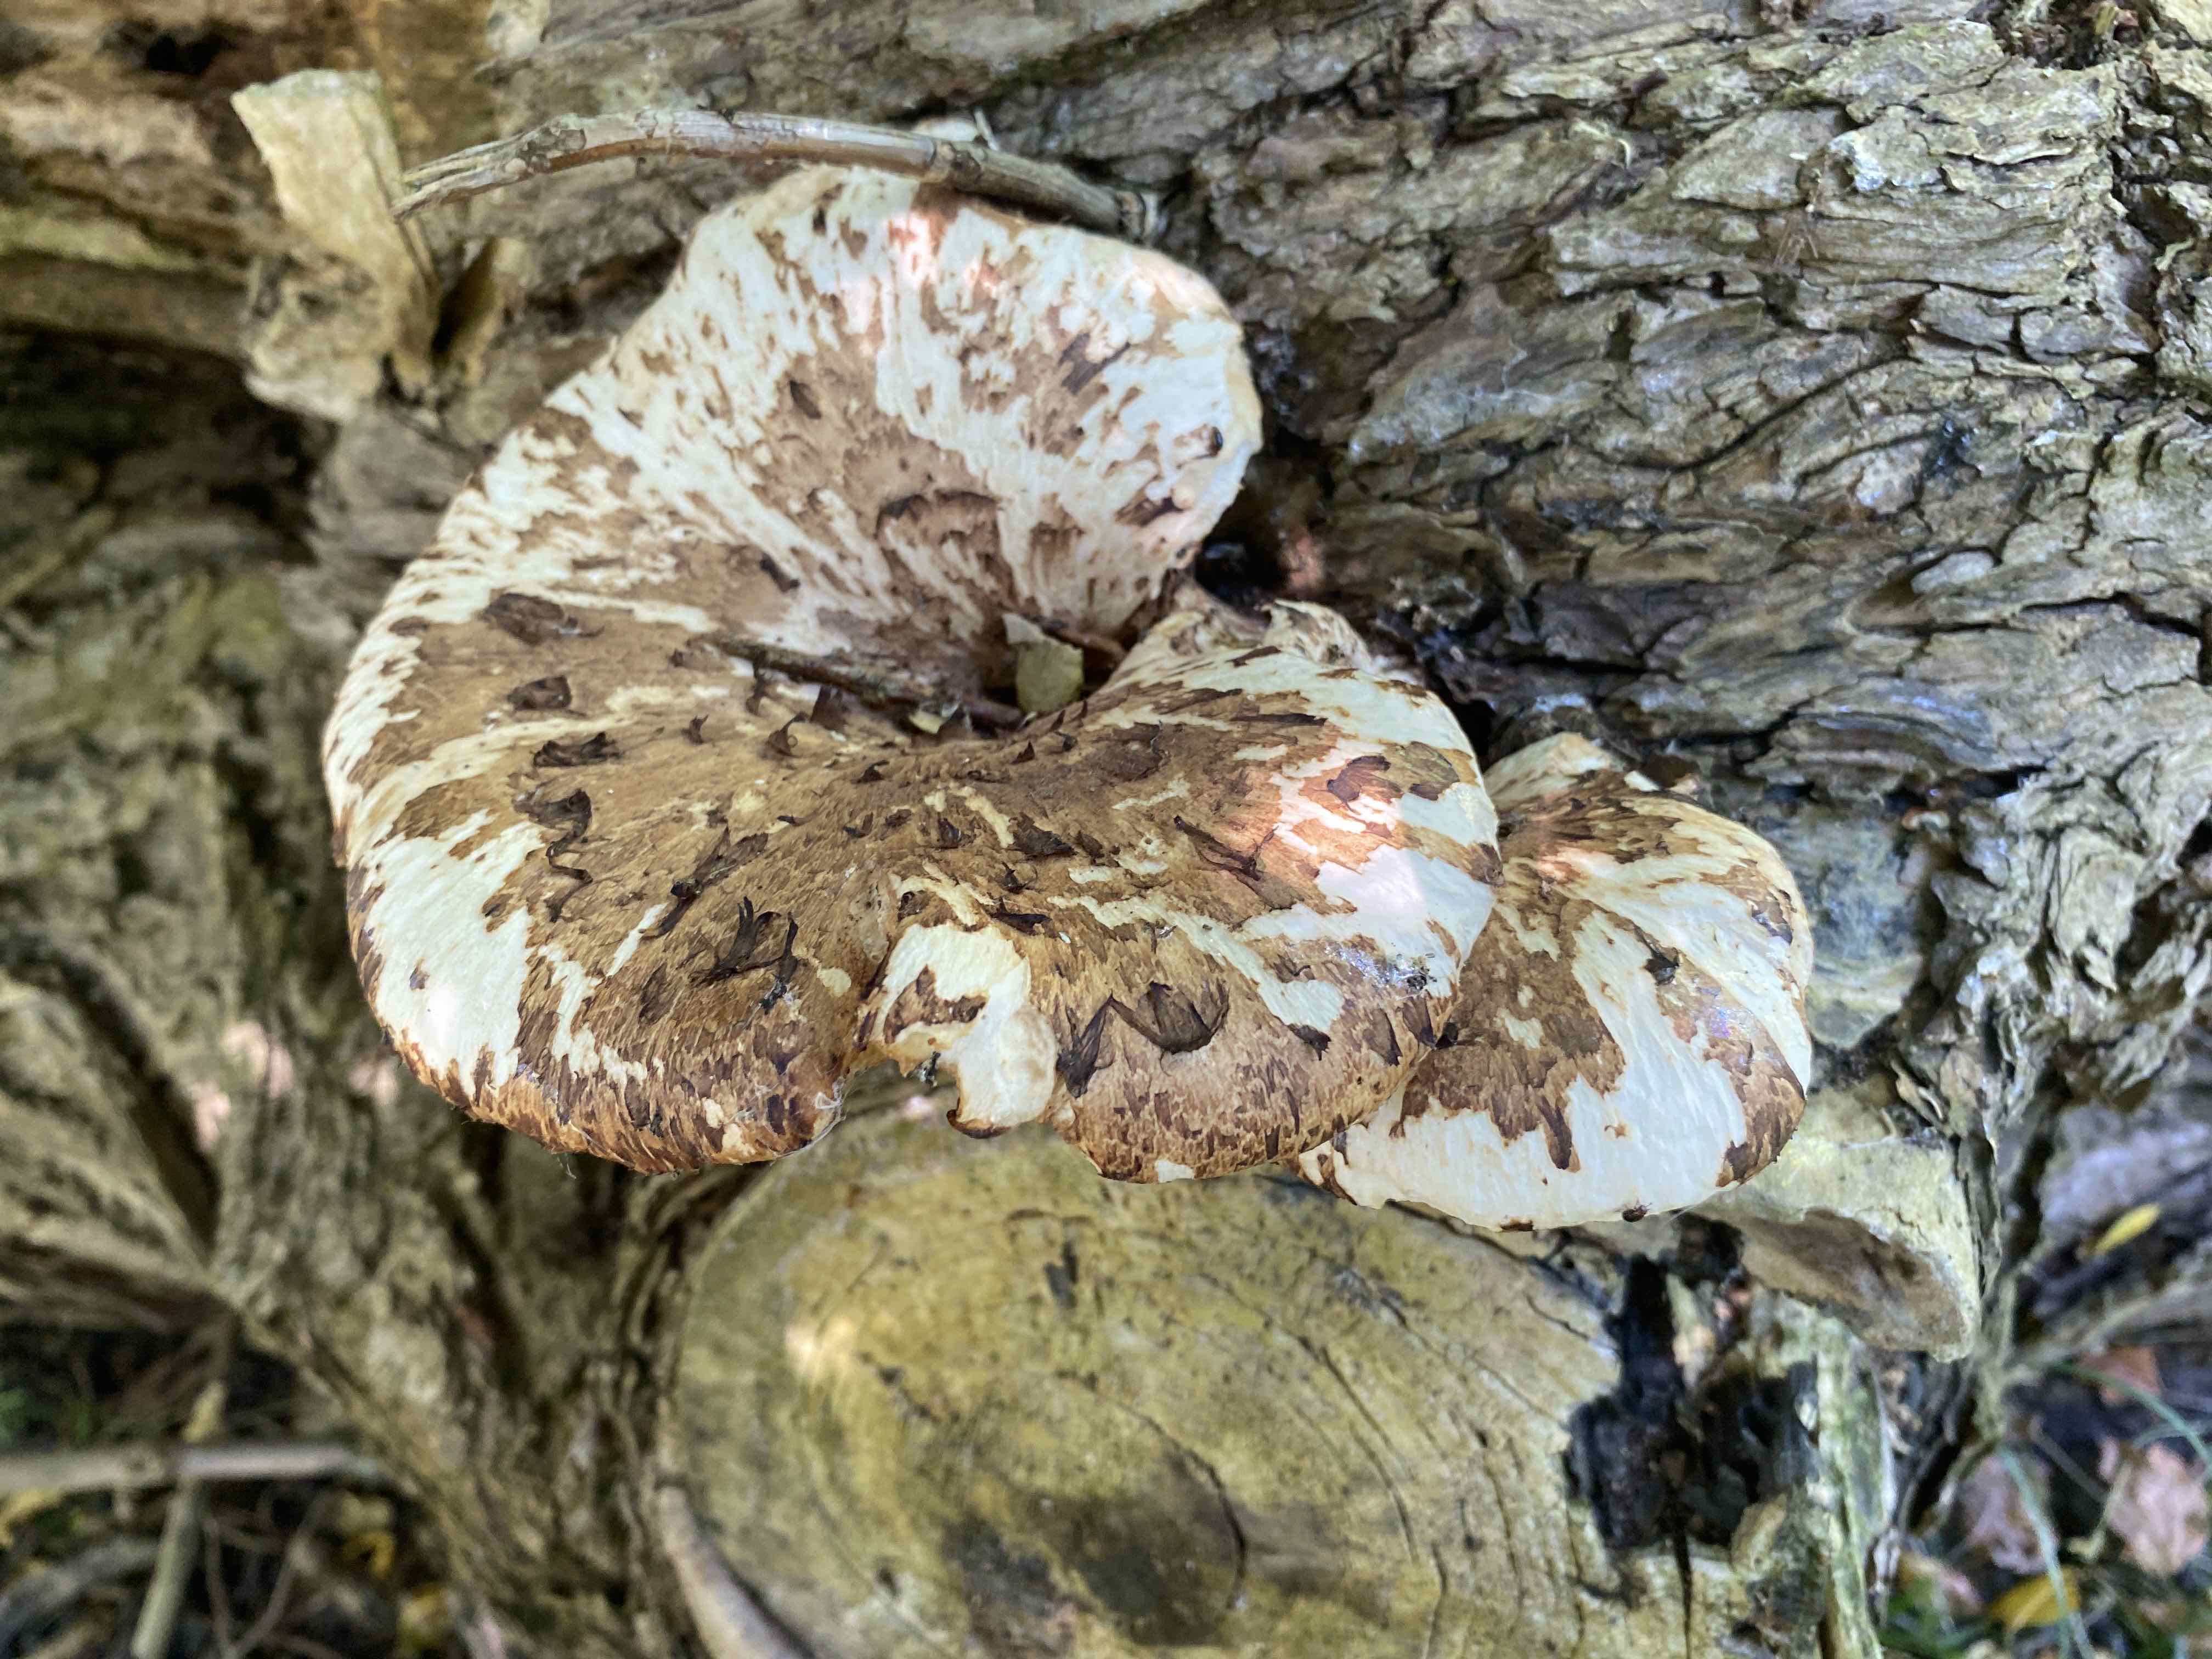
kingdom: Fungi
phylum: Basidiomycota
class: Agaricomycetes
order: Polyporales
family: Polyporaceae
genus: Cerioporus
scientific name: Cerioporus squamosus
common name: skællet stilkporesvamp
